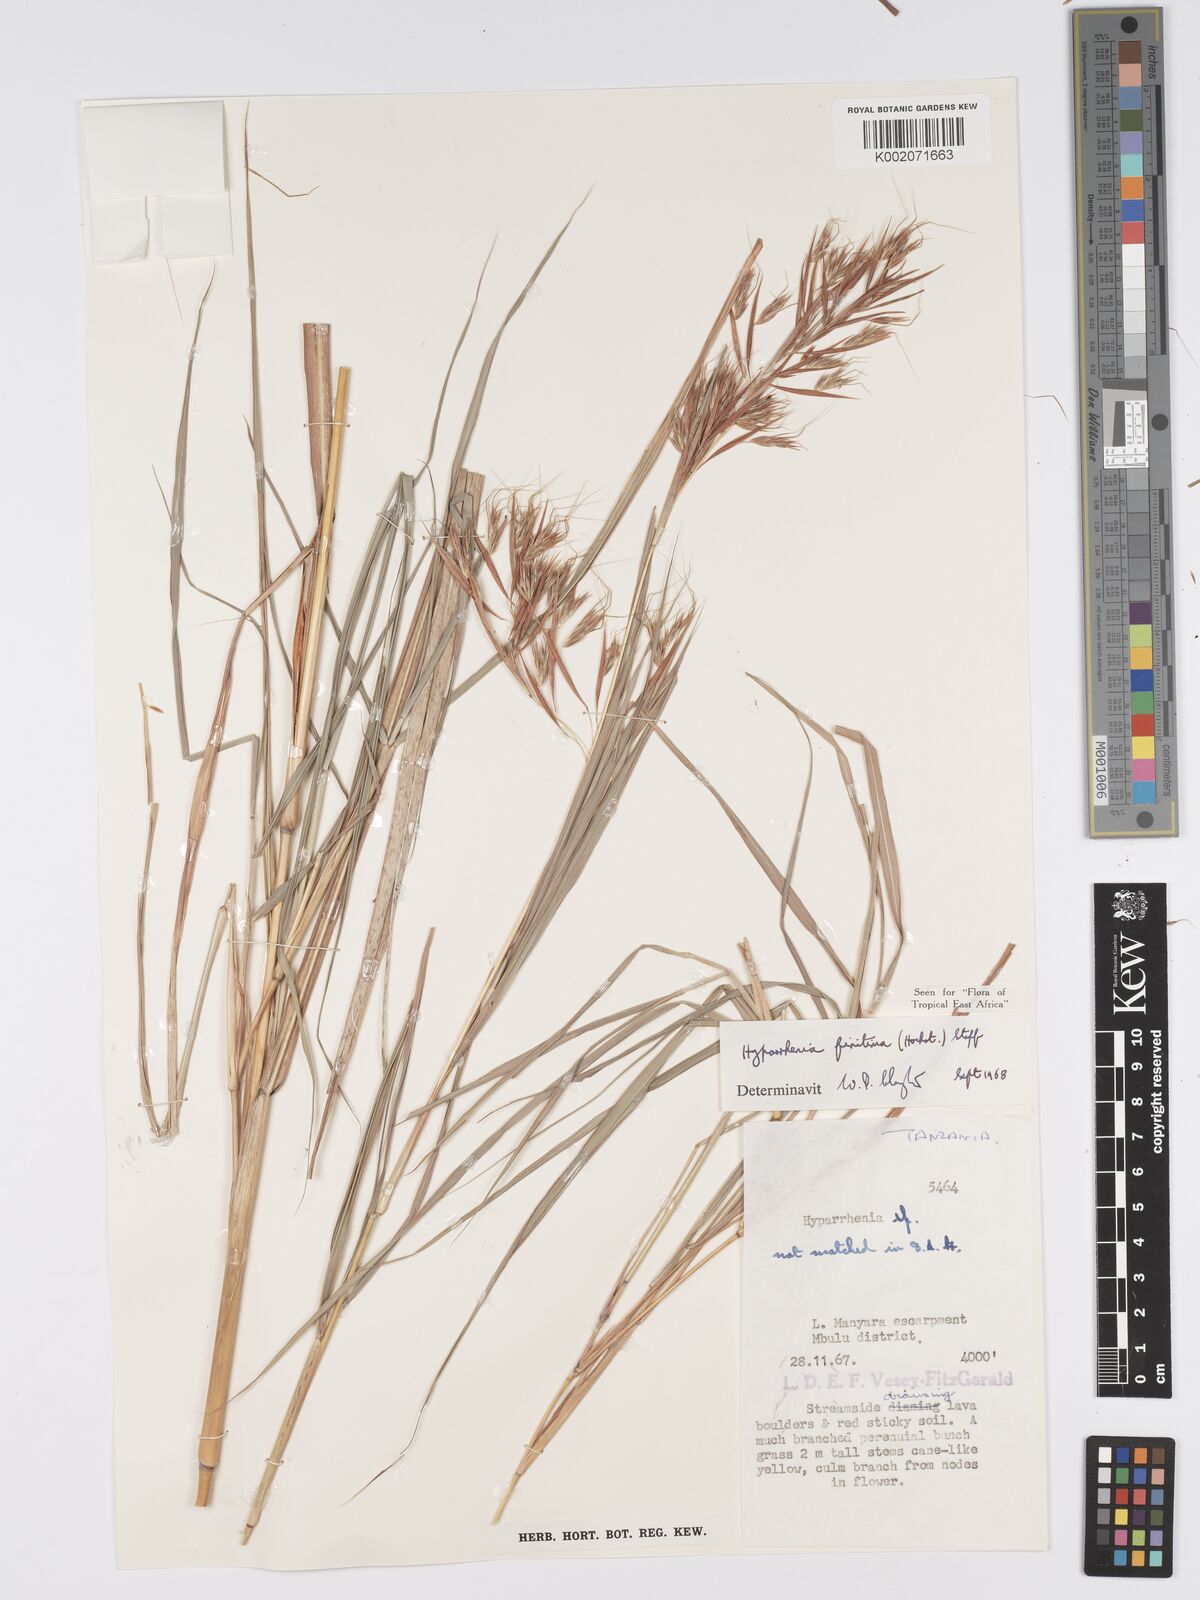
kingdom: Plantae
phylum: Tracheophyta
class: Liliopsida
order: Poales
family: Poaceae
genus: Hyparrhenia
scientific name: Hyparrhenia finitima
